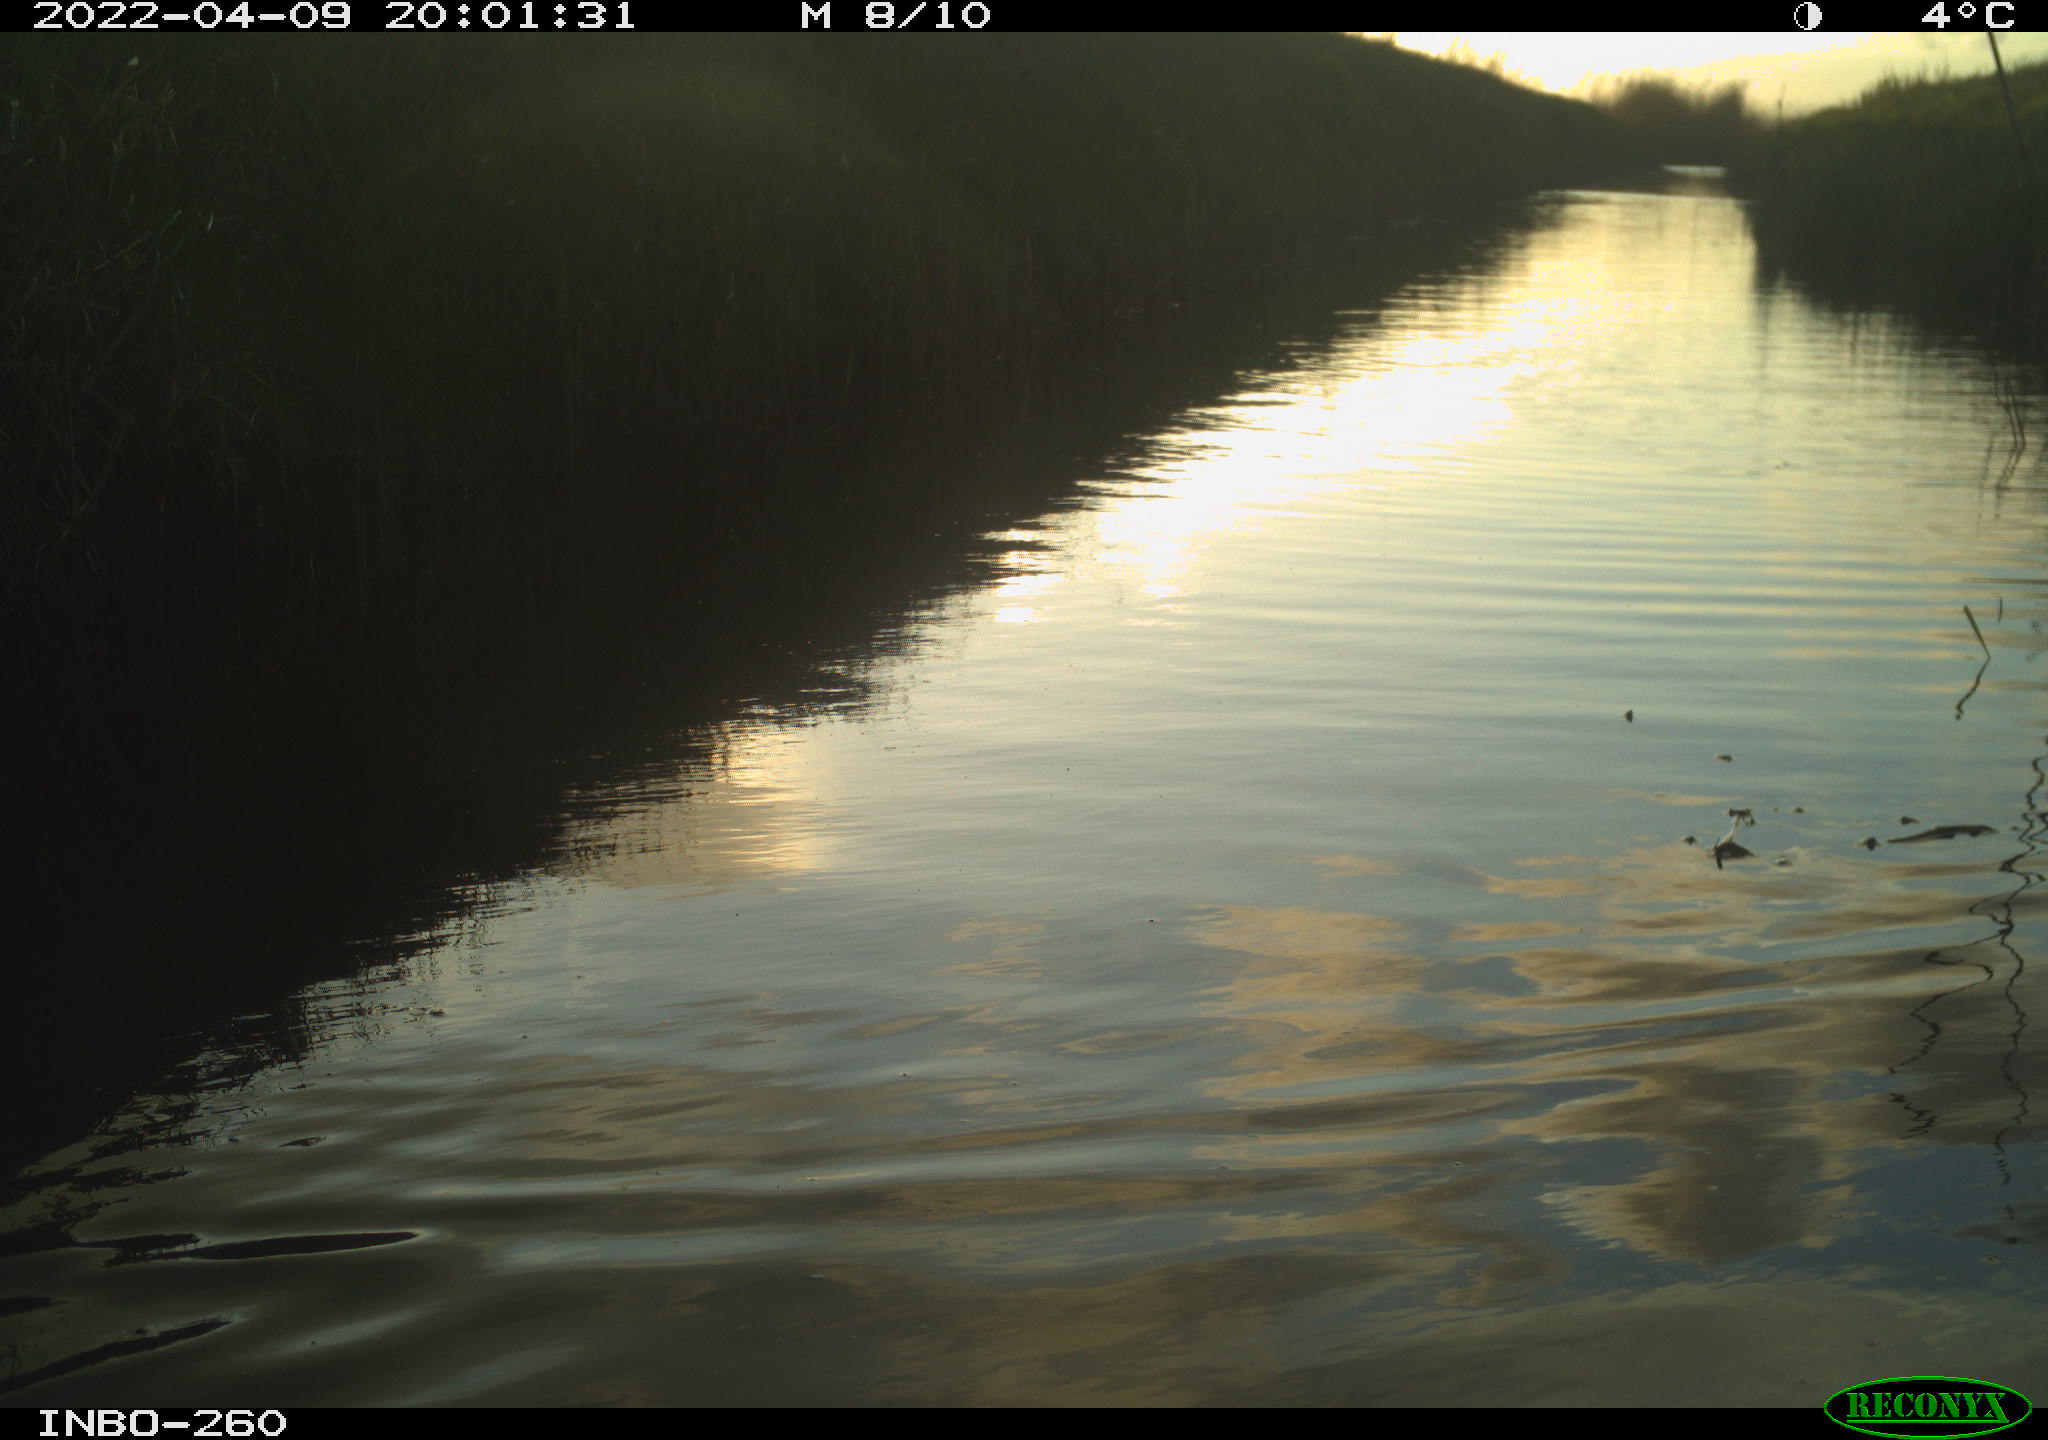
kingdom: Animalia
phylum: Chordata
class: Aves
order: Gruiformes
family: Rallidae
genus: Fulica
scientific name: Fulica atra
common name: Eurasian coot
